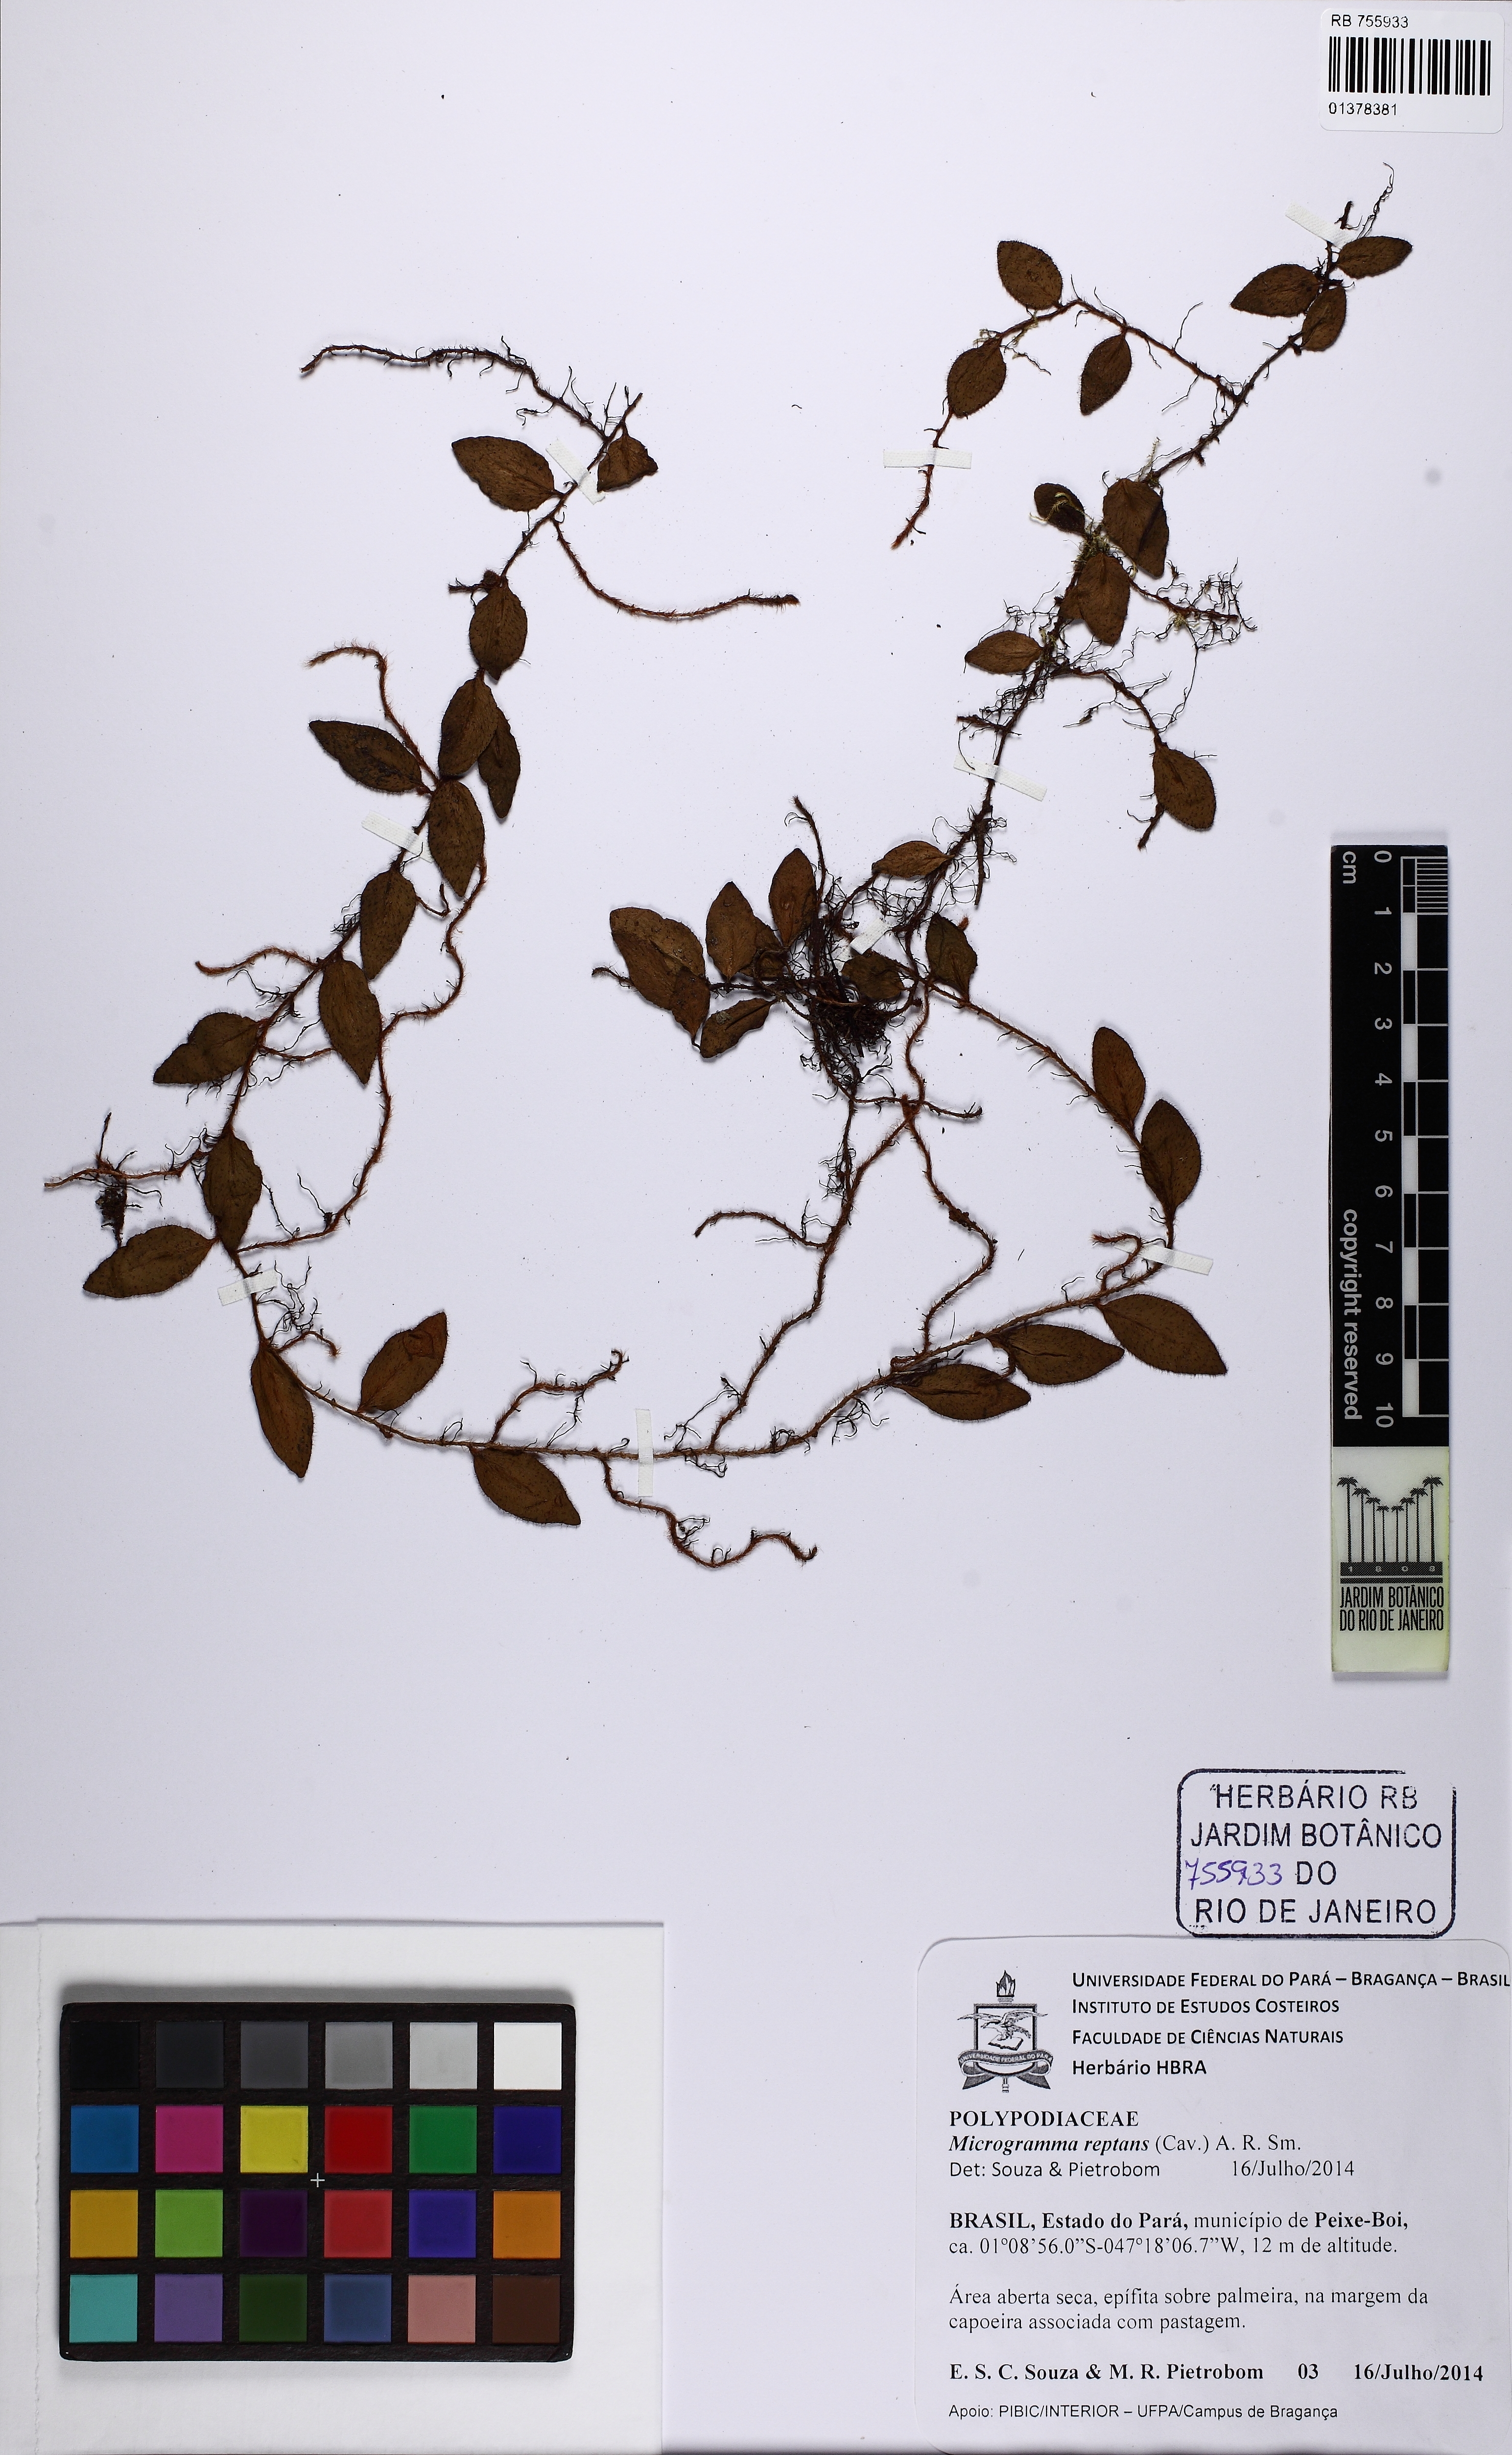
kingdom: Plantae
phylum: Tracheophyta
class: Polypodiopsida
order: Polypodiales
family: Polypodiaceae
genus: Microgramma
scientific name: Microgramma reptans
